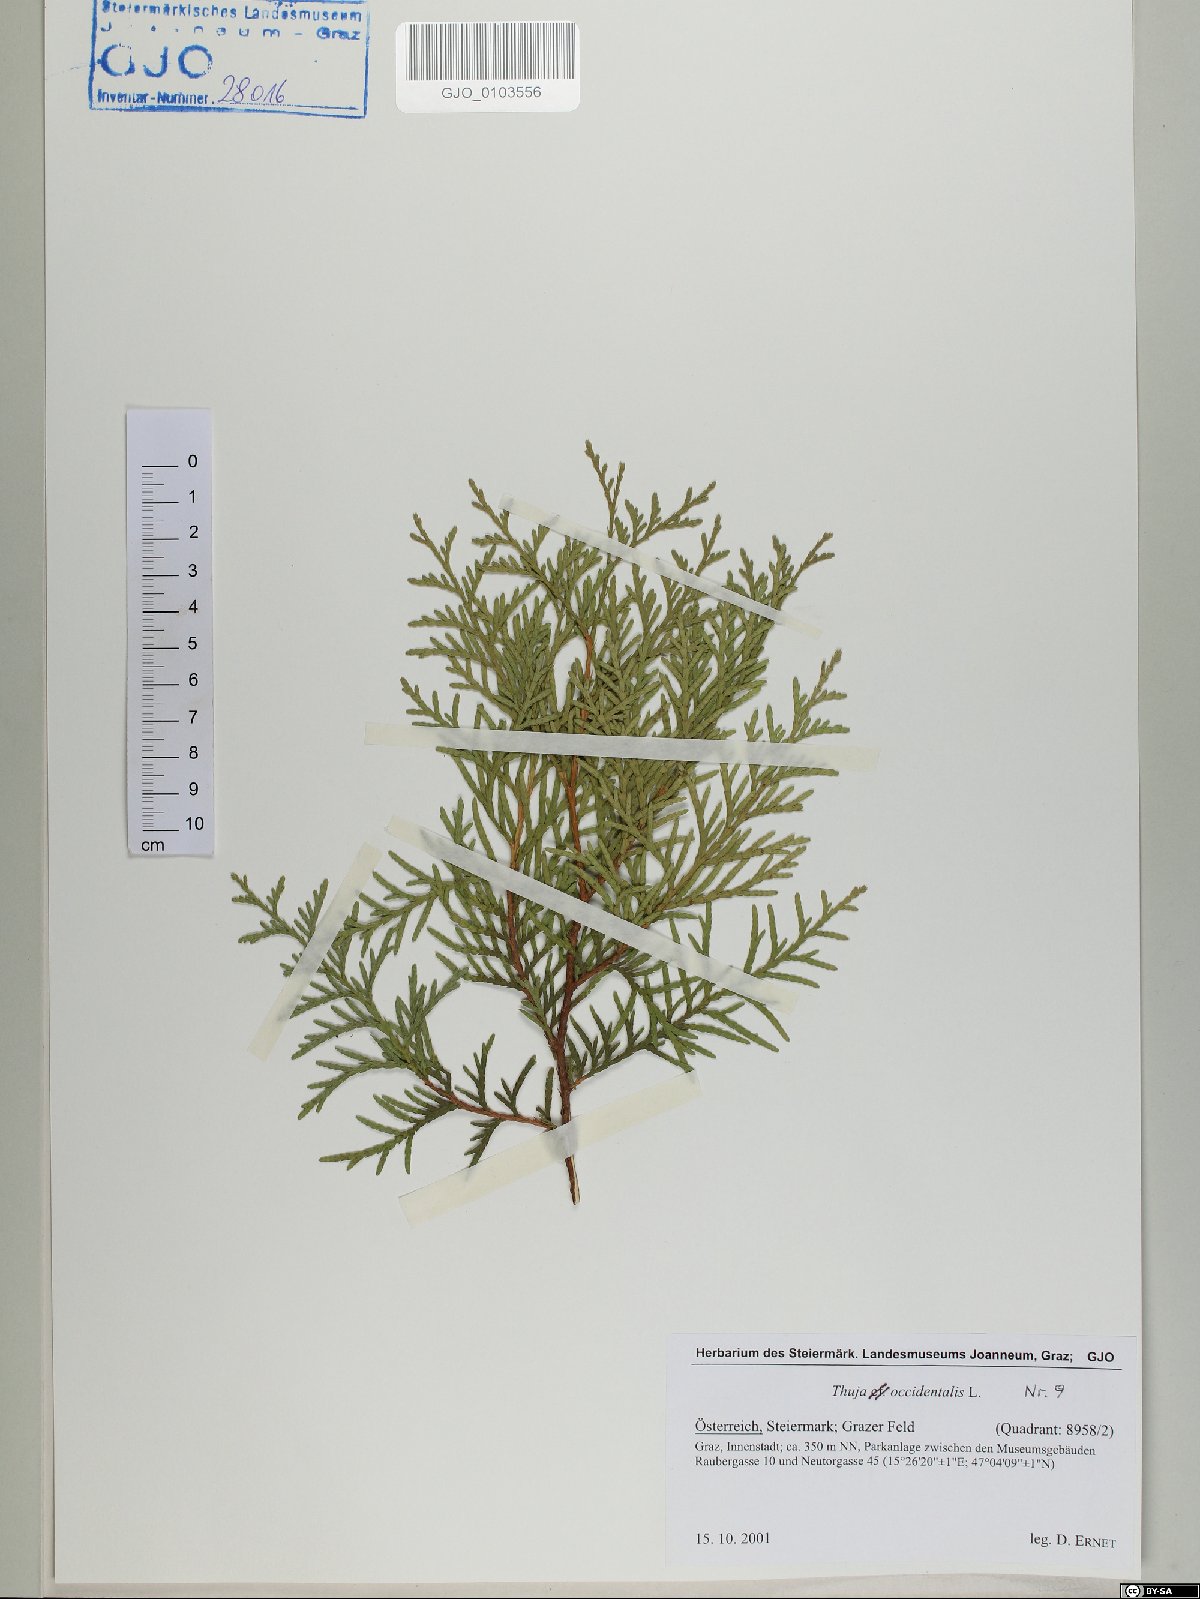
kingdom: Plantae
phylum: Tracheophyta
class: Pinopsida
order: Pinales
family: Cupressaceae
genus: Thuja
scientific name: Thuja occidentalis
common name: Northern white-cedar
